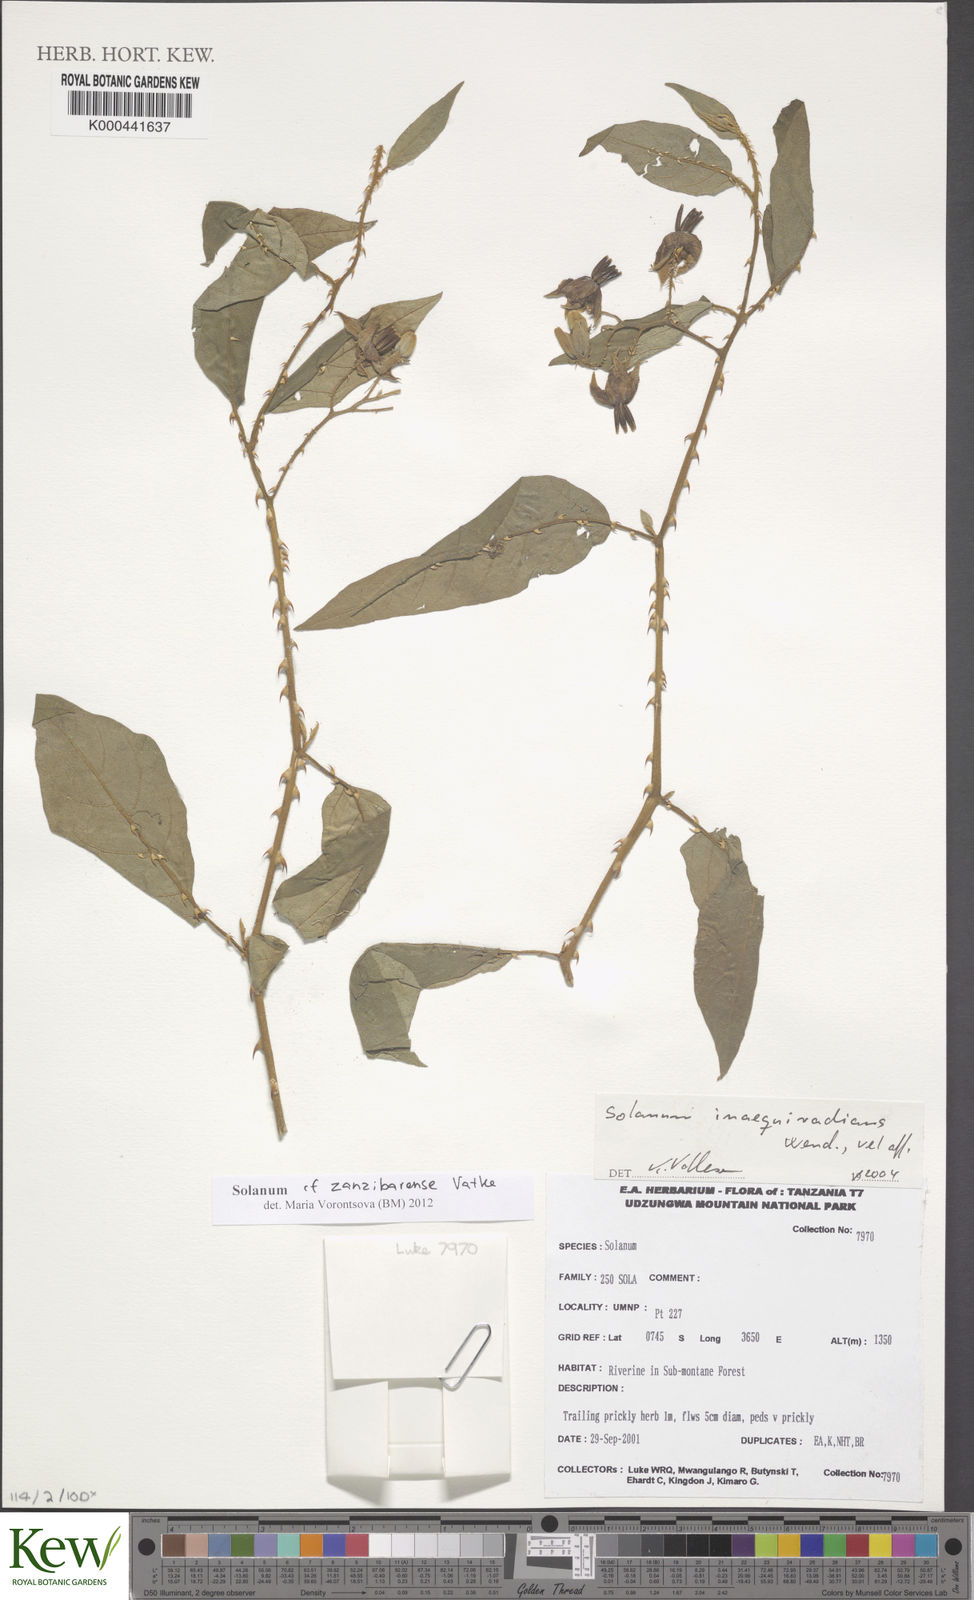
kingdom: Plantae
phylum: Tracheophyta
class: Magnoliopsida
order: Solanales
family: Solanaceae
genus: Solanum
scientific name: Solanum
